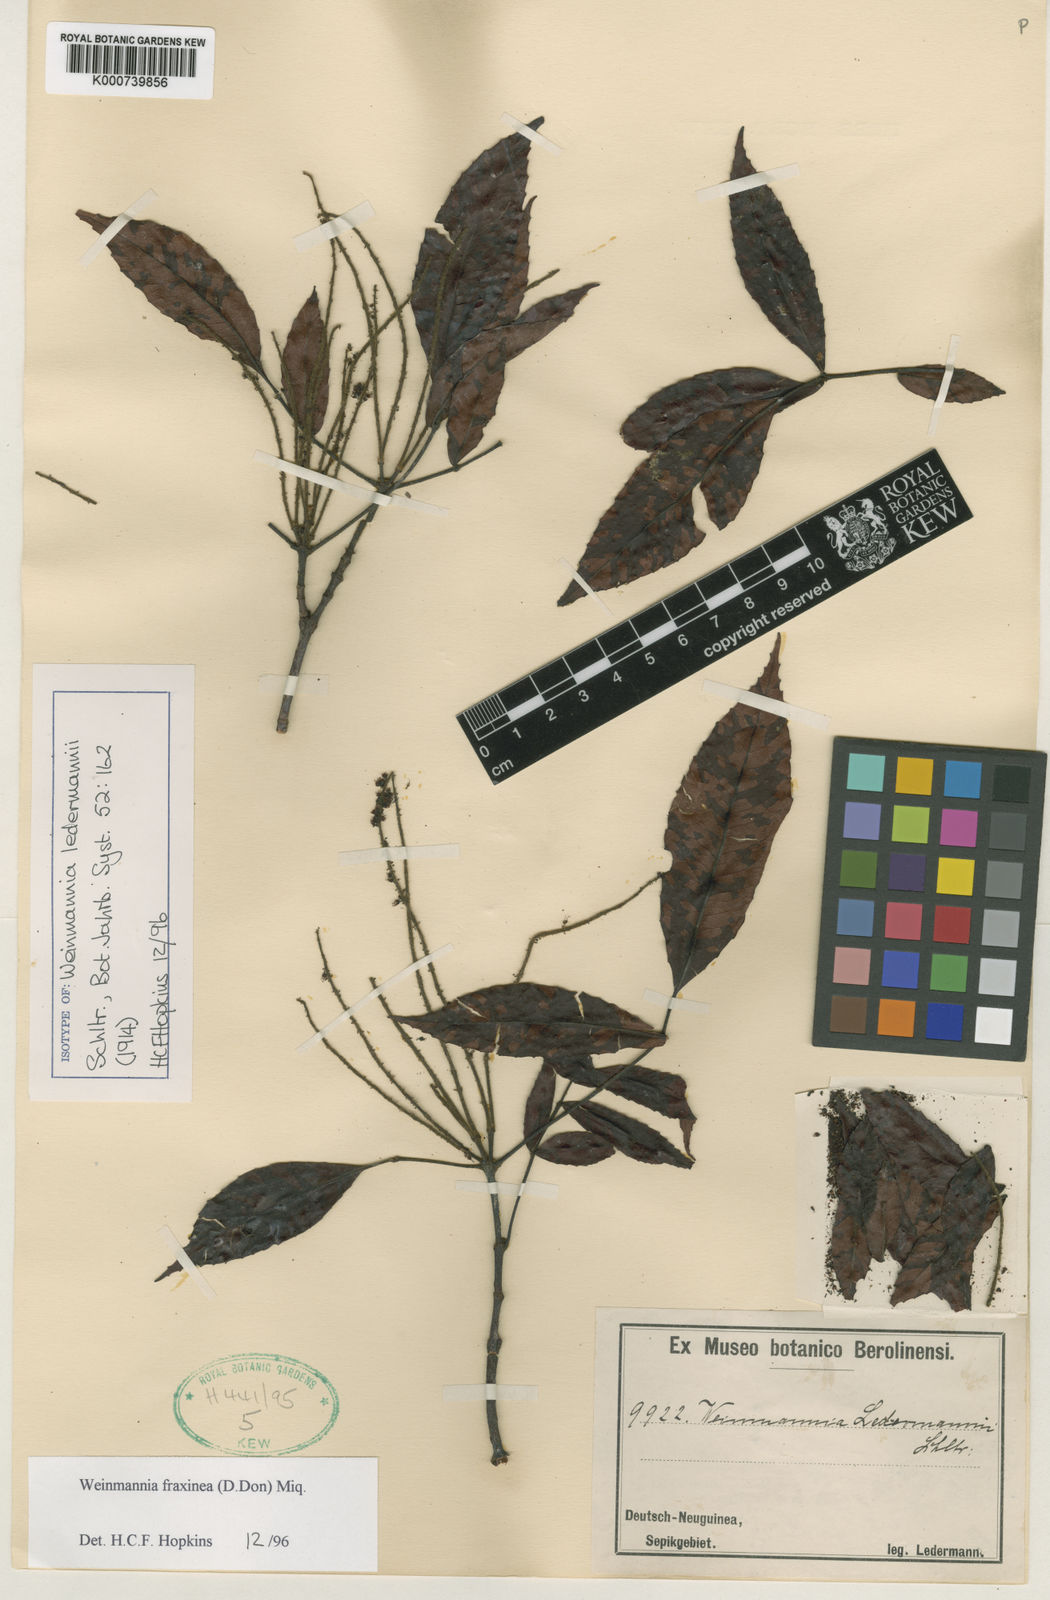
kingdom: Plantae
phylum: Tracheophyta
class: Magnoliopsida
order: Oxalidales
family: Cunoniaceae
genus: Pterophylla
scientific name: Pterophylla fraxinea
